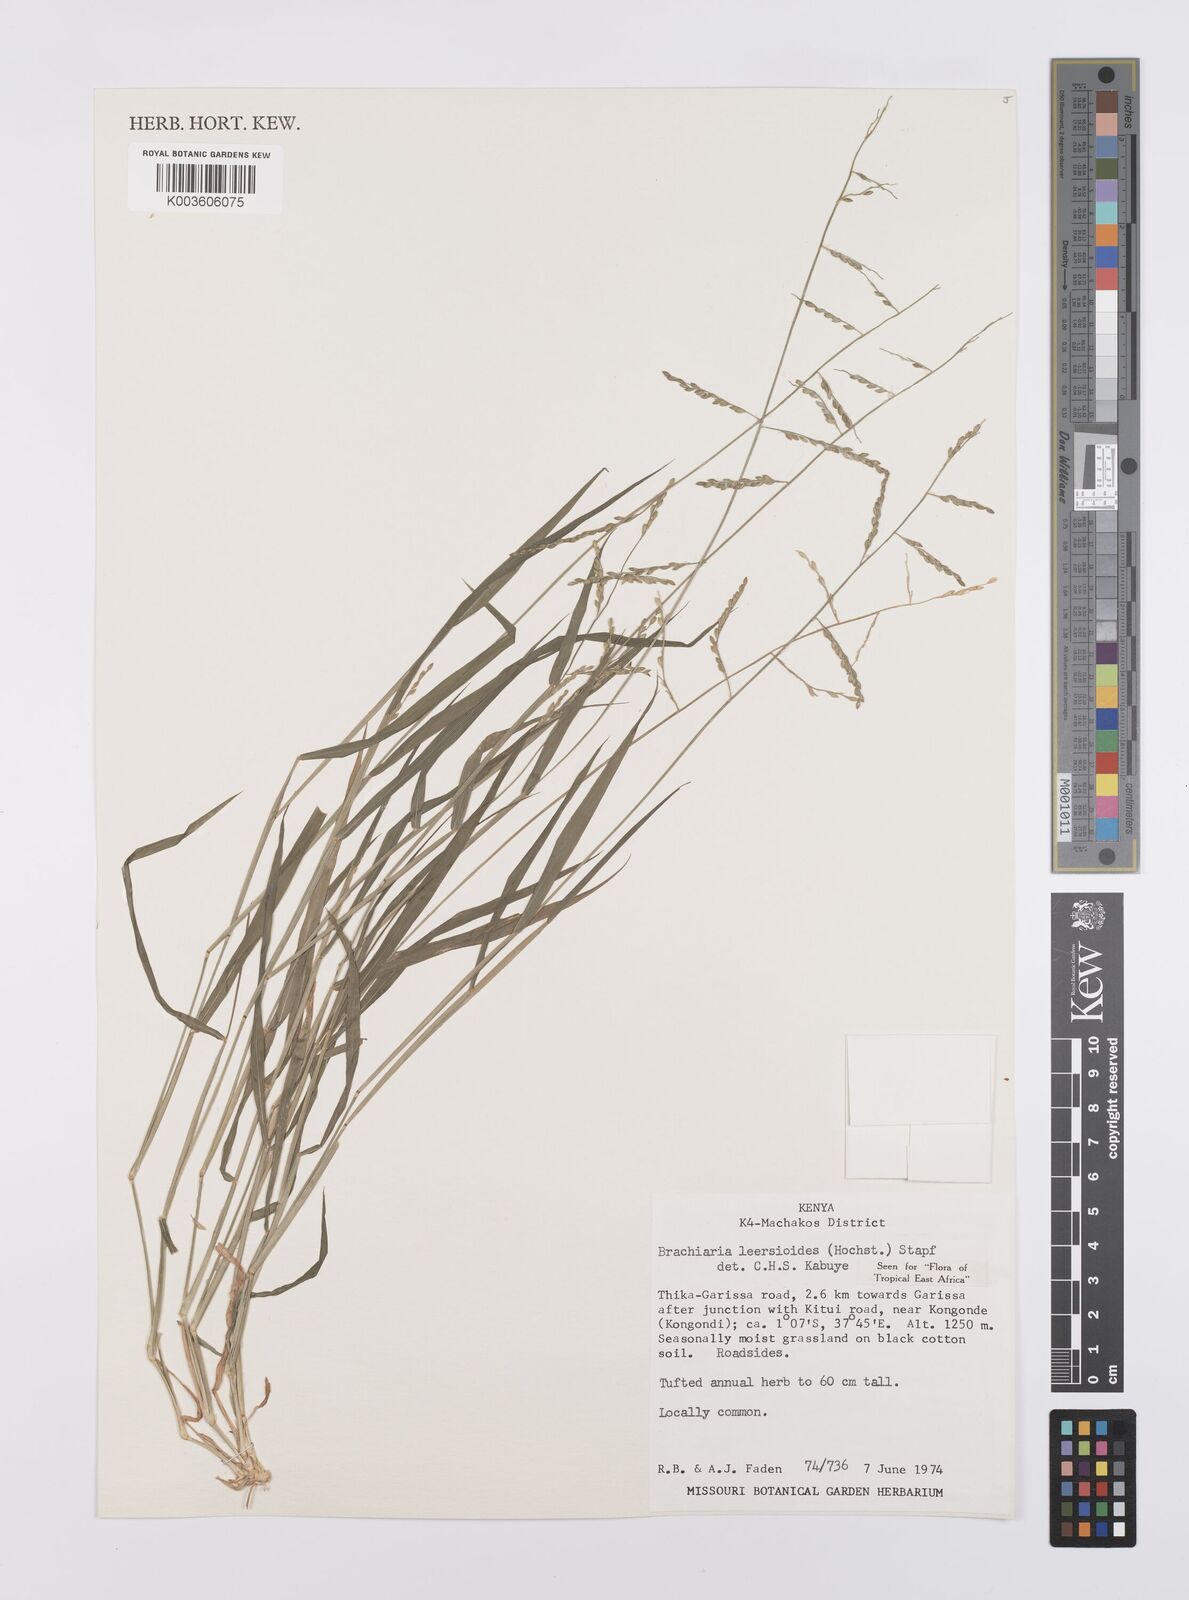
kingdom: Plantae
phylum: Tracheophyta
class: Liliopsida
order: Poales
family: Poaceae
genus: Urochloa
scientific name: Urochloa leersioides
